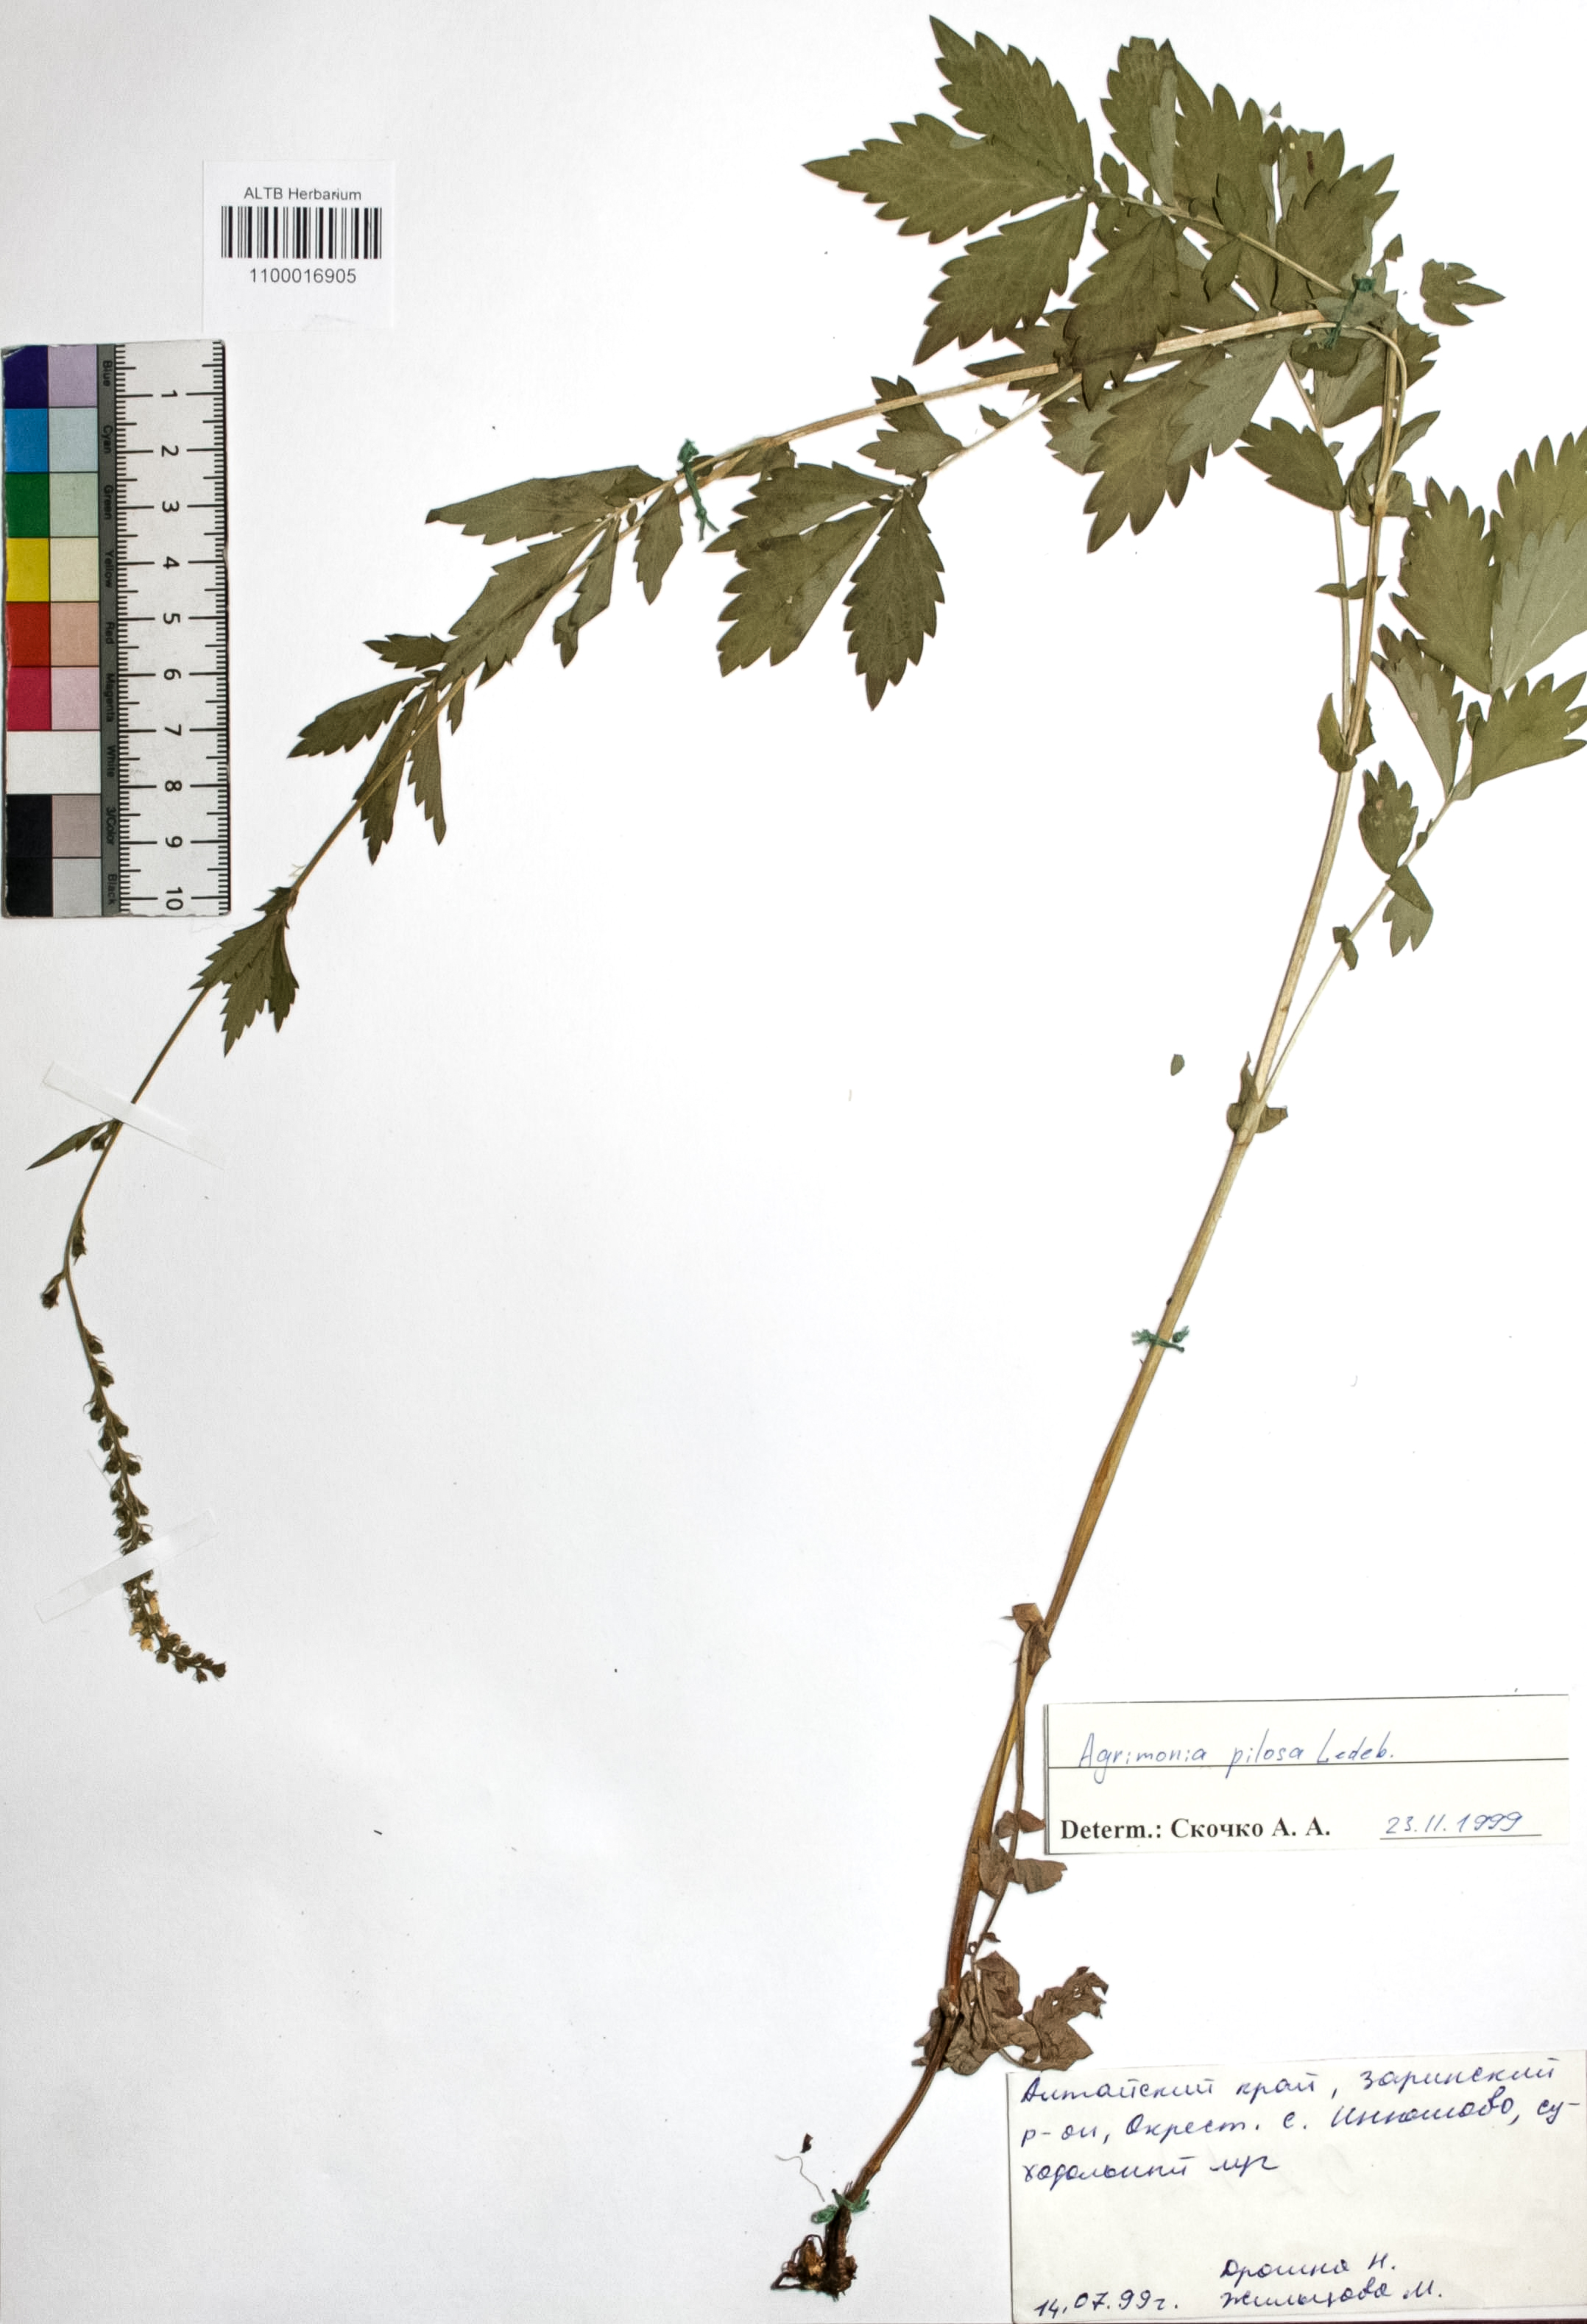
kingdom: Plantae
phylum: Tracheophyta
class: Magnoliopsida
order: Rosales
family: Rosaceae
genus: Agrimonia
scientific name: Agrimonia pilosa
